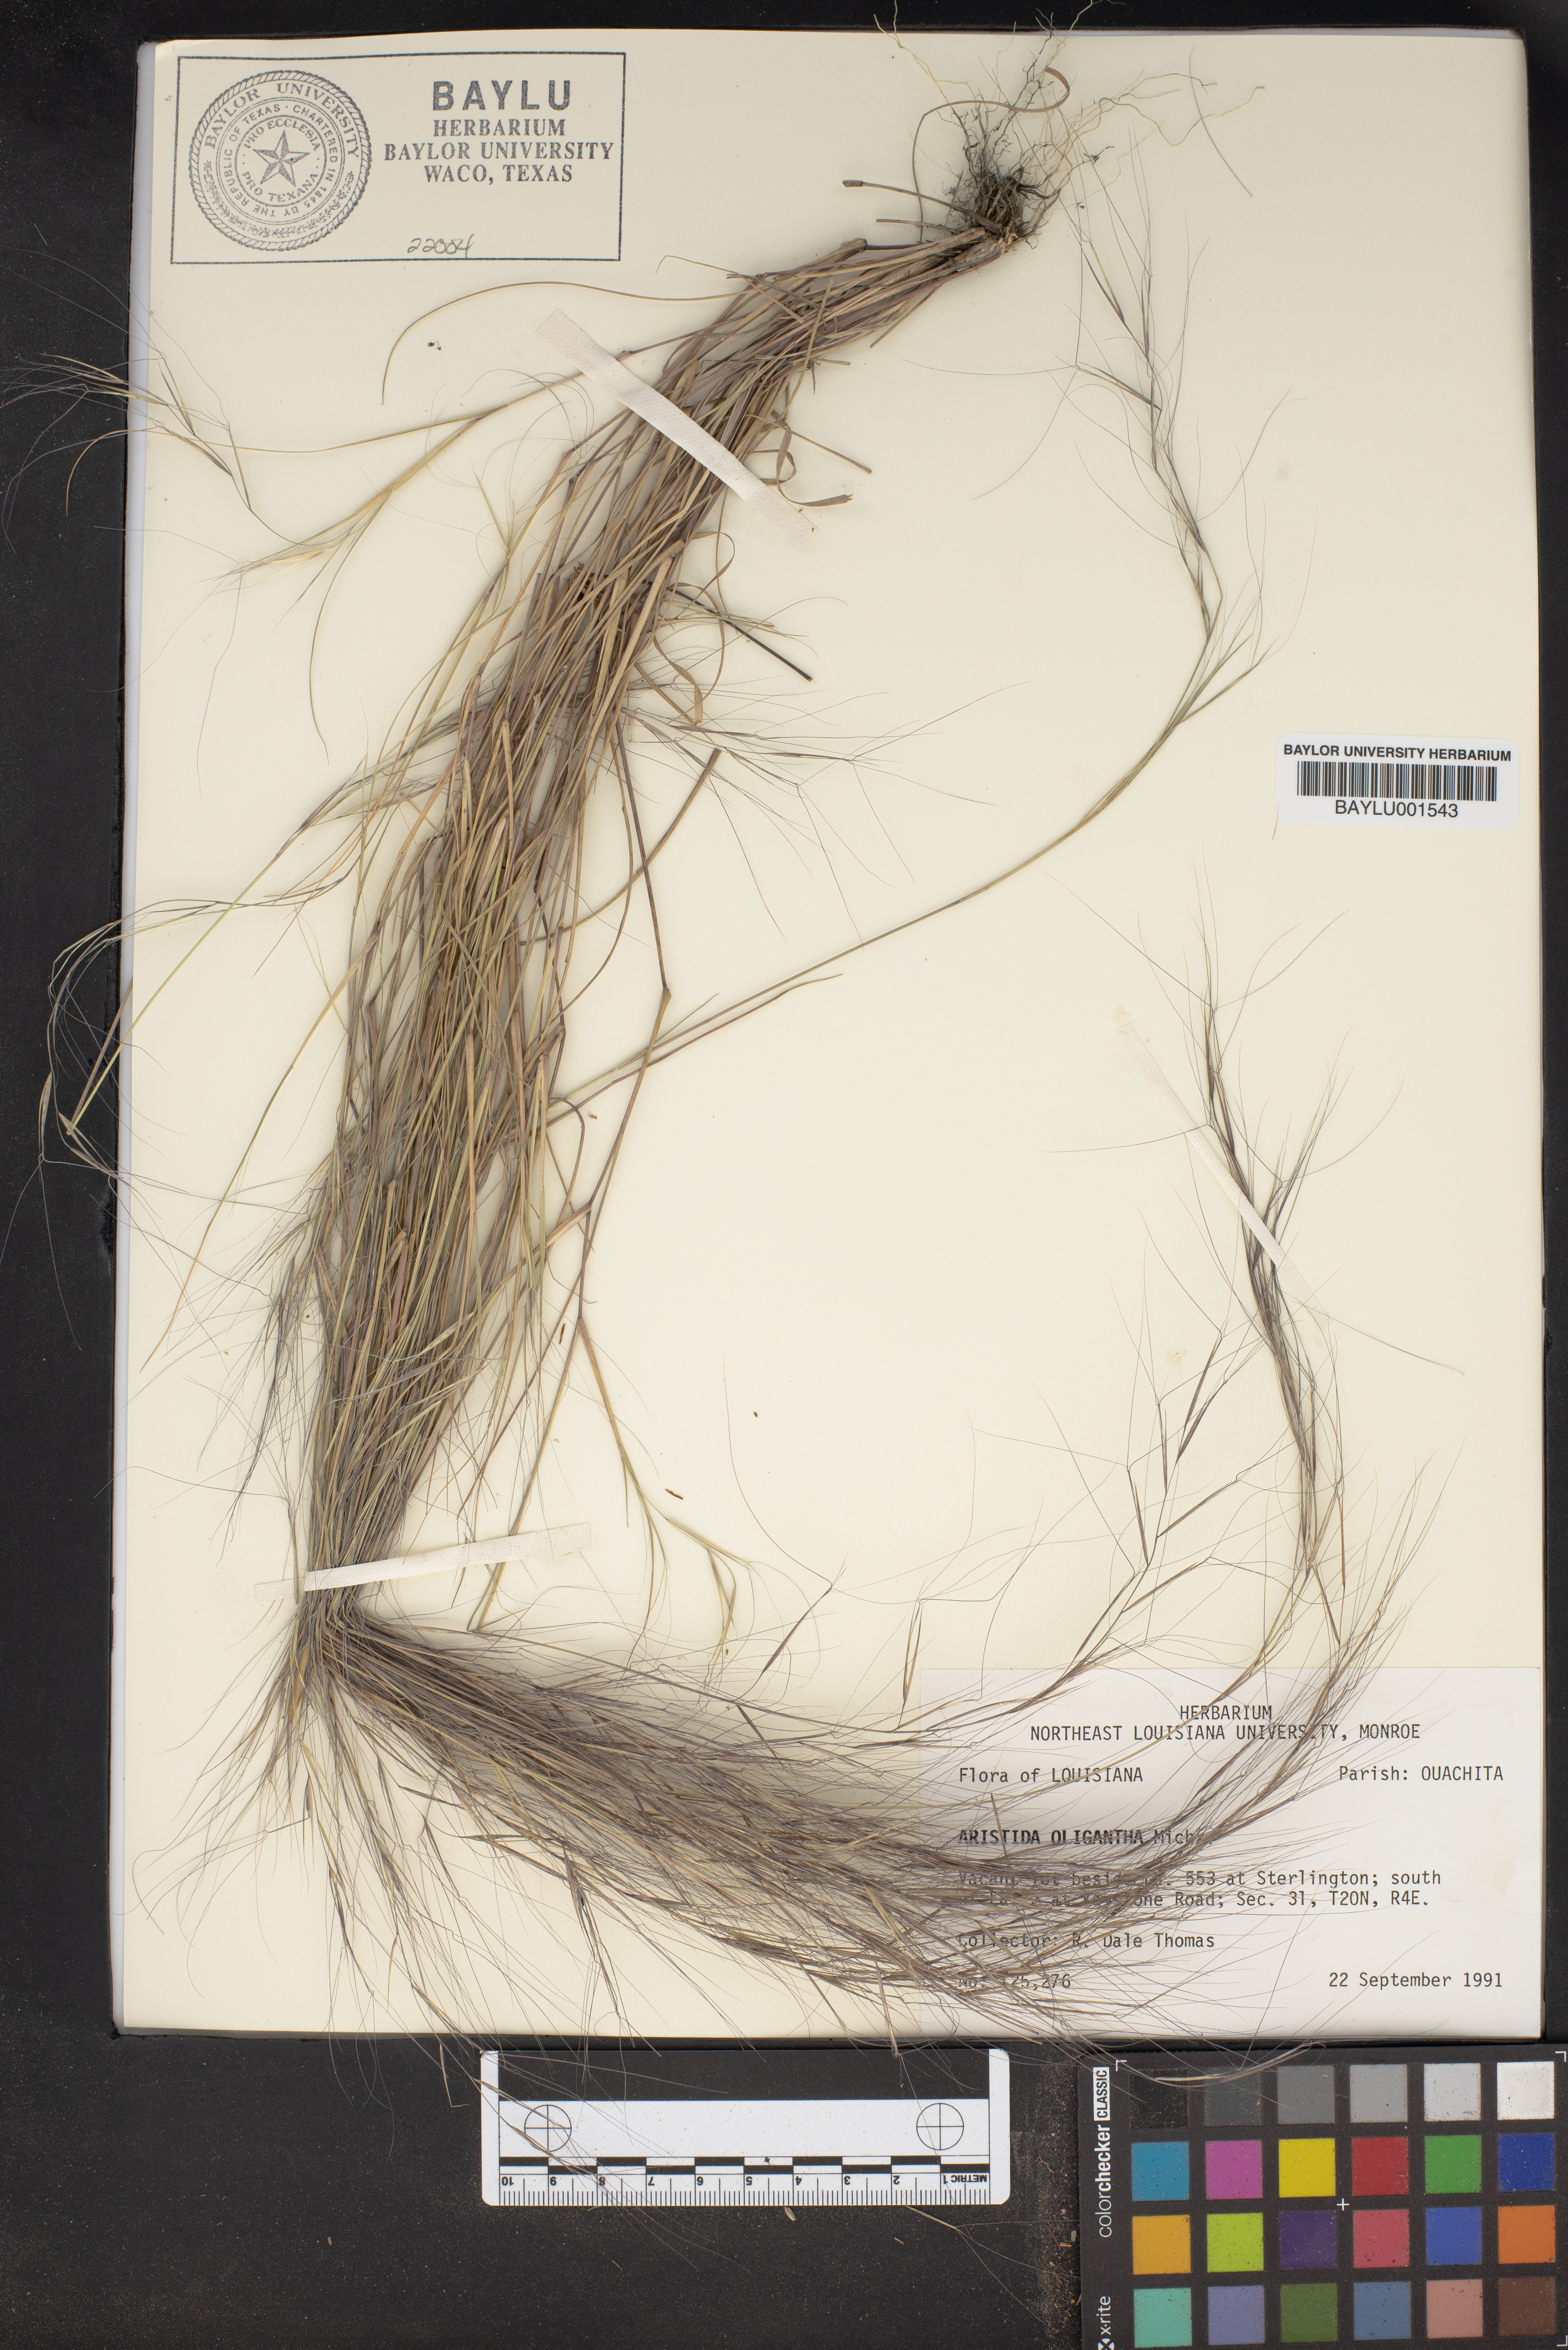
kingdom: Plantae
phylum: Tracheophyta
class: Liliopsida
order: Poales
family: Poaceae
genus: Aristida
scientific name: Aristida oligantha
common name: Few-flowered aristida
